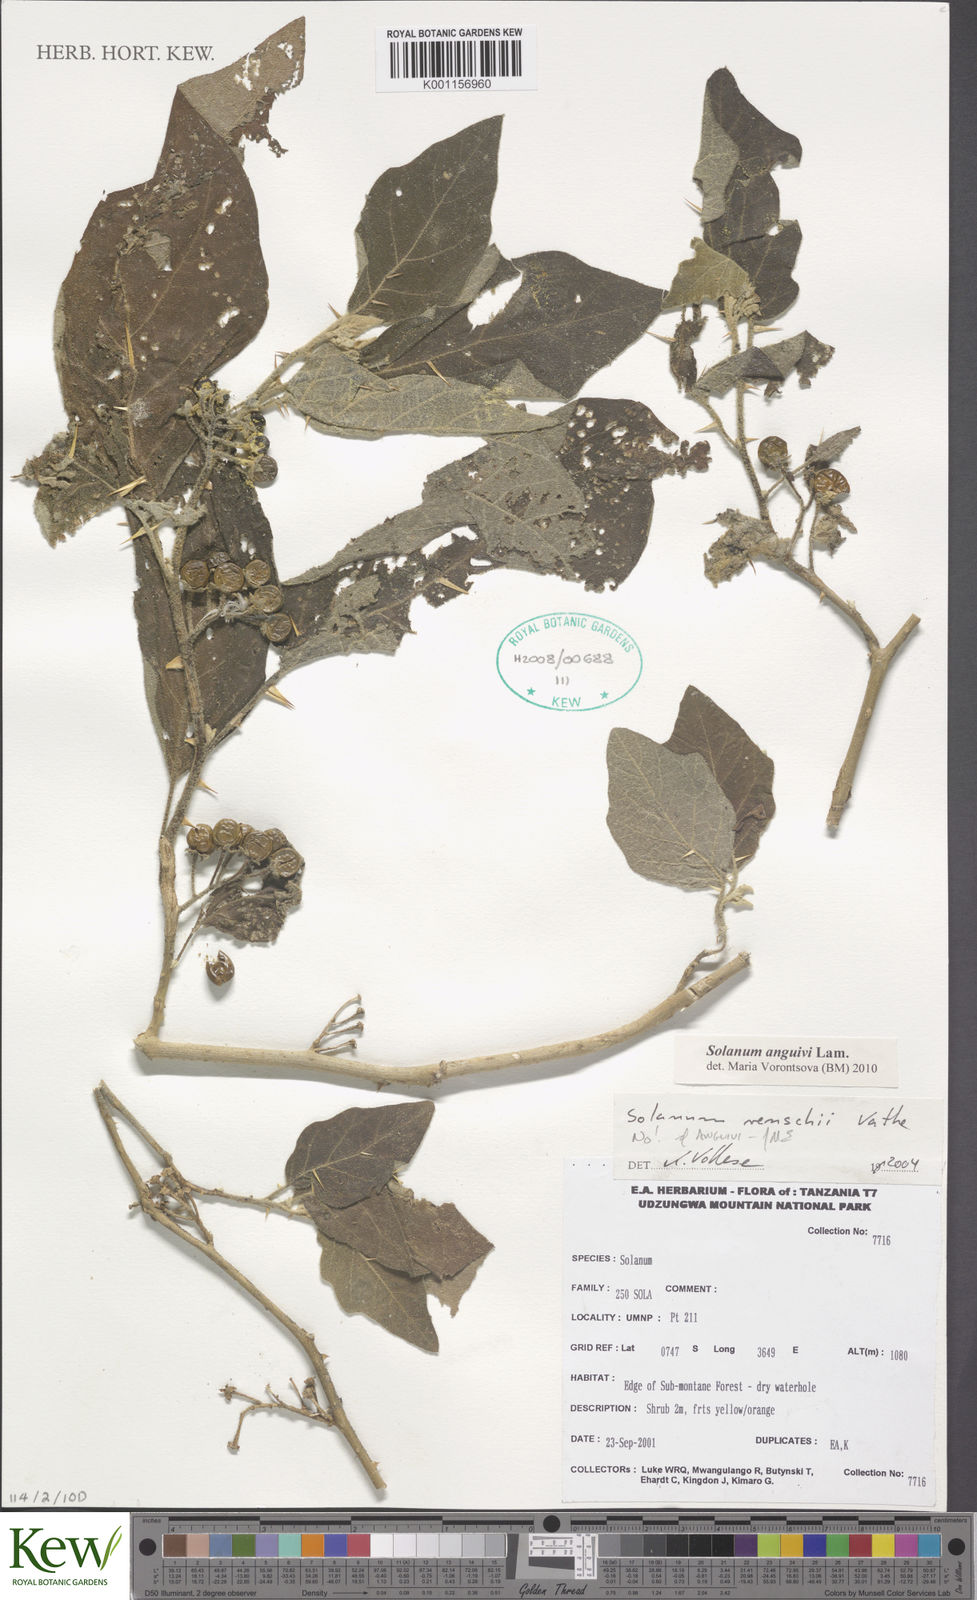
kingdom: Plantae
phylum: Tracheophyta
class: Magnoliopsida
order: Solanales
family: Solanaceae
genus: Solanum
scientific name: Solanum anguivi
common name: Forest bitterberry
